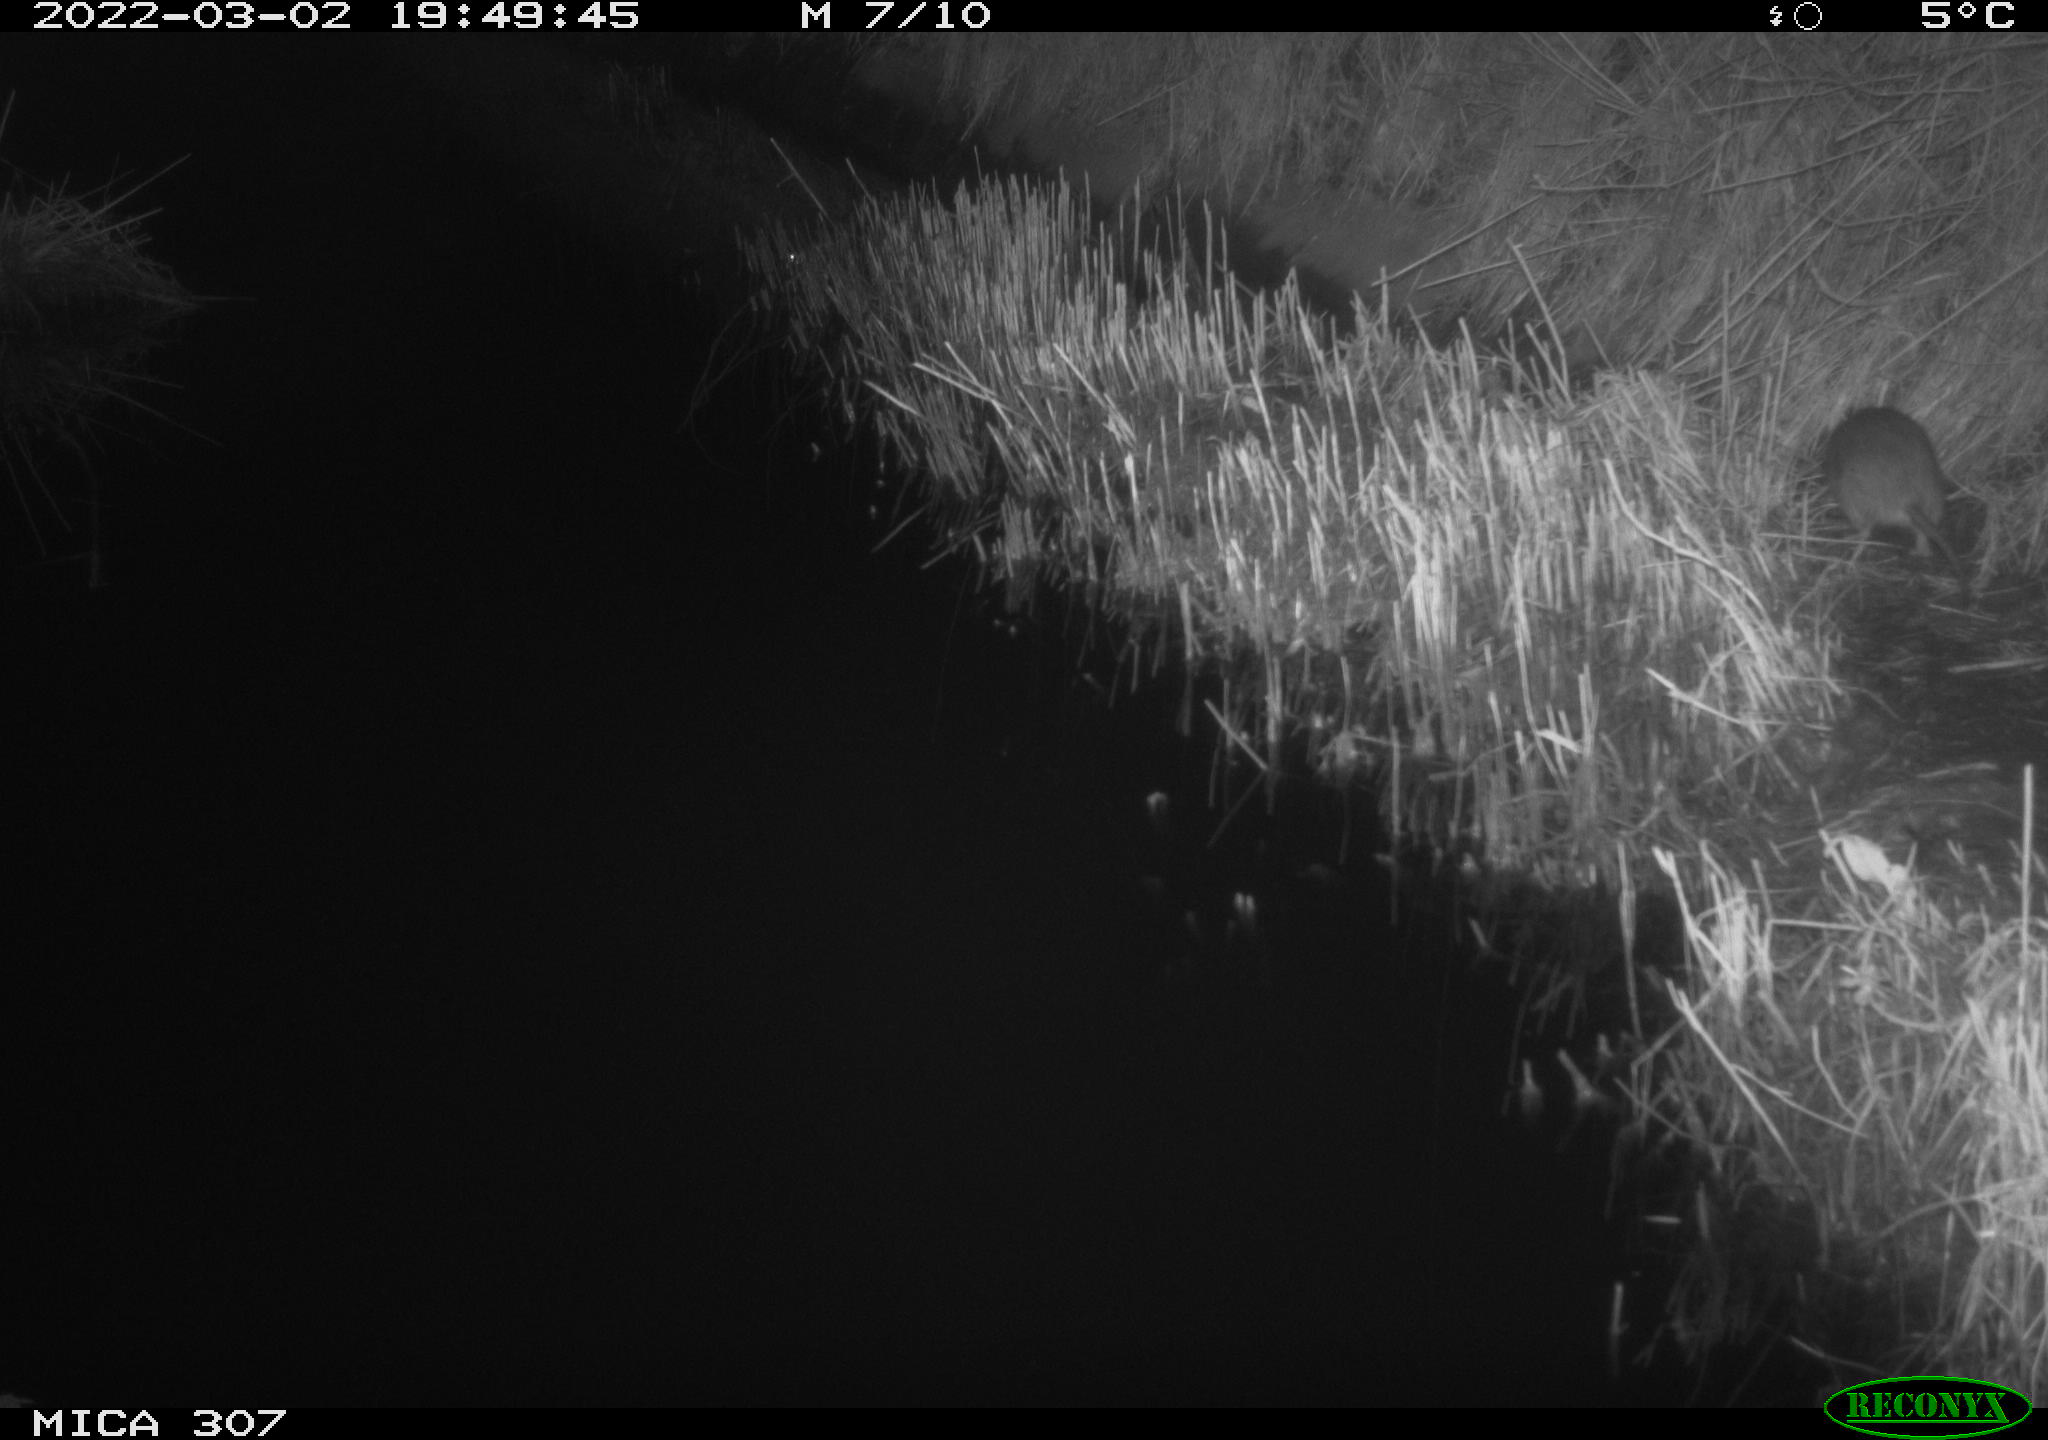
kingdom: Animalia
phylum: Chordata
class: Mammalia
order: Rodentia
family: Muridae
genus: Rattus
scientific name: Rattus norvegicus
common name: Brown rat
